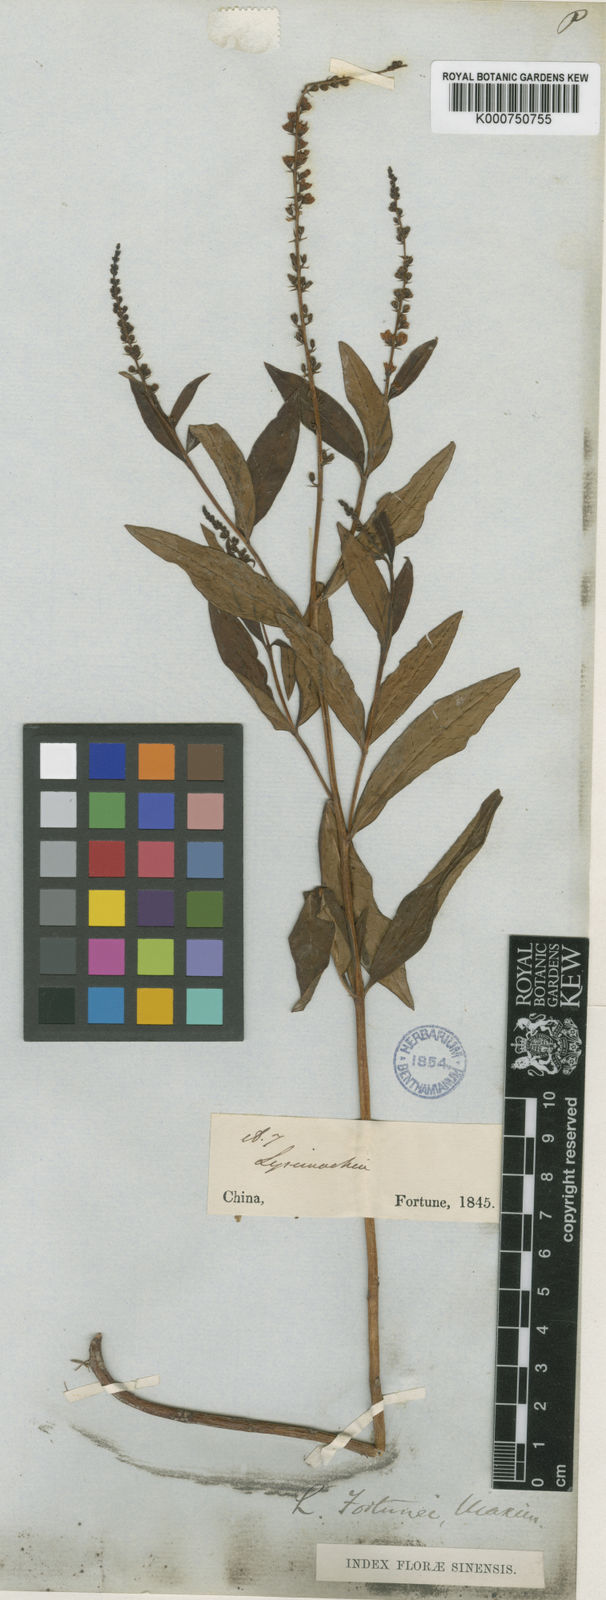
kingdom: Plantae
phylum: Tracheophyta
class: Magnoliopsida
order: Ericales
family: Primulaceae
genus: Lysimachia
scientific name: Lysimachia fortunei
